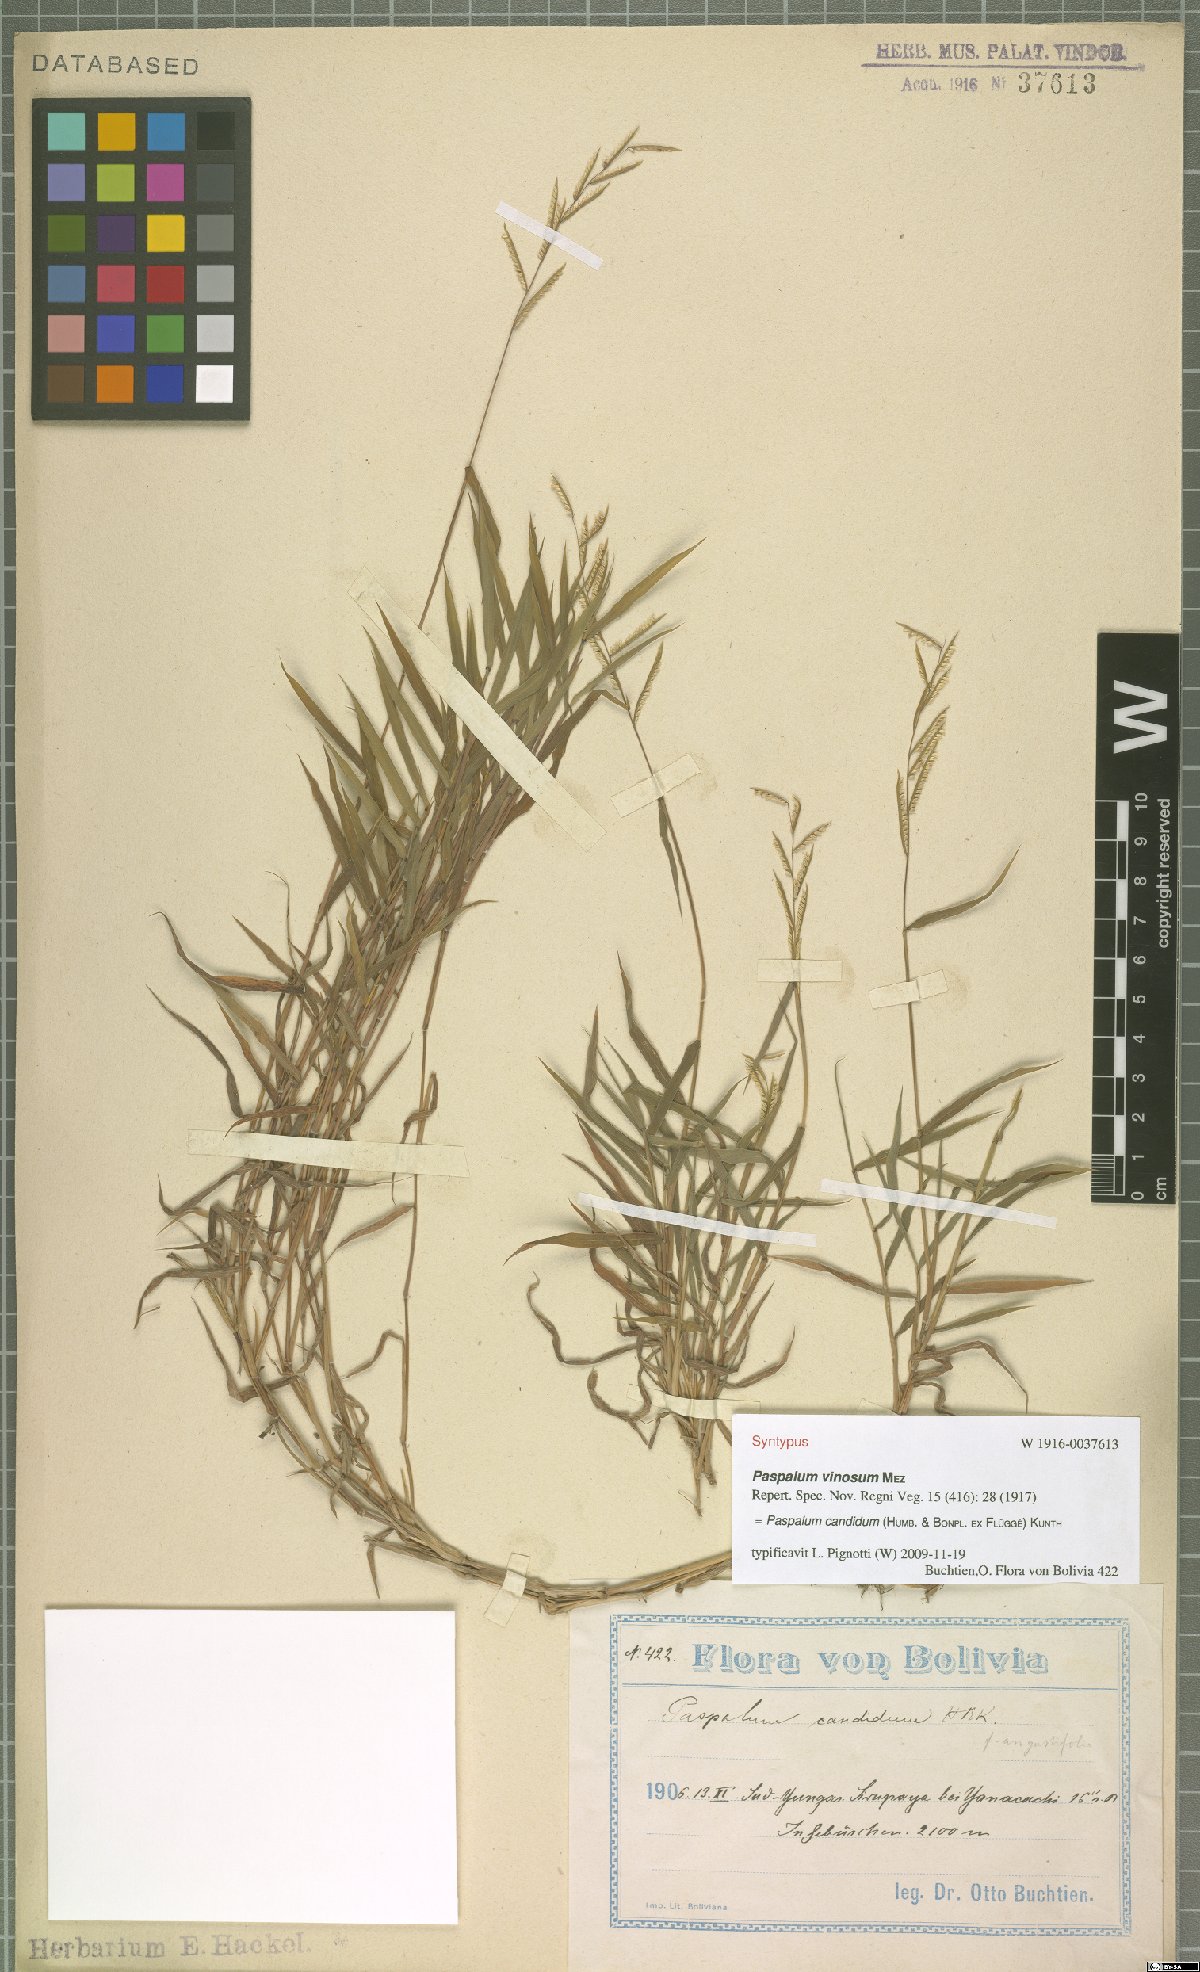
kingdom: Plantae
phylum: Tracheophyta
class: Liliopsida
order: Poales
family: Poaceae
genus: Paspalum
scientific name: Paspalum candidum
